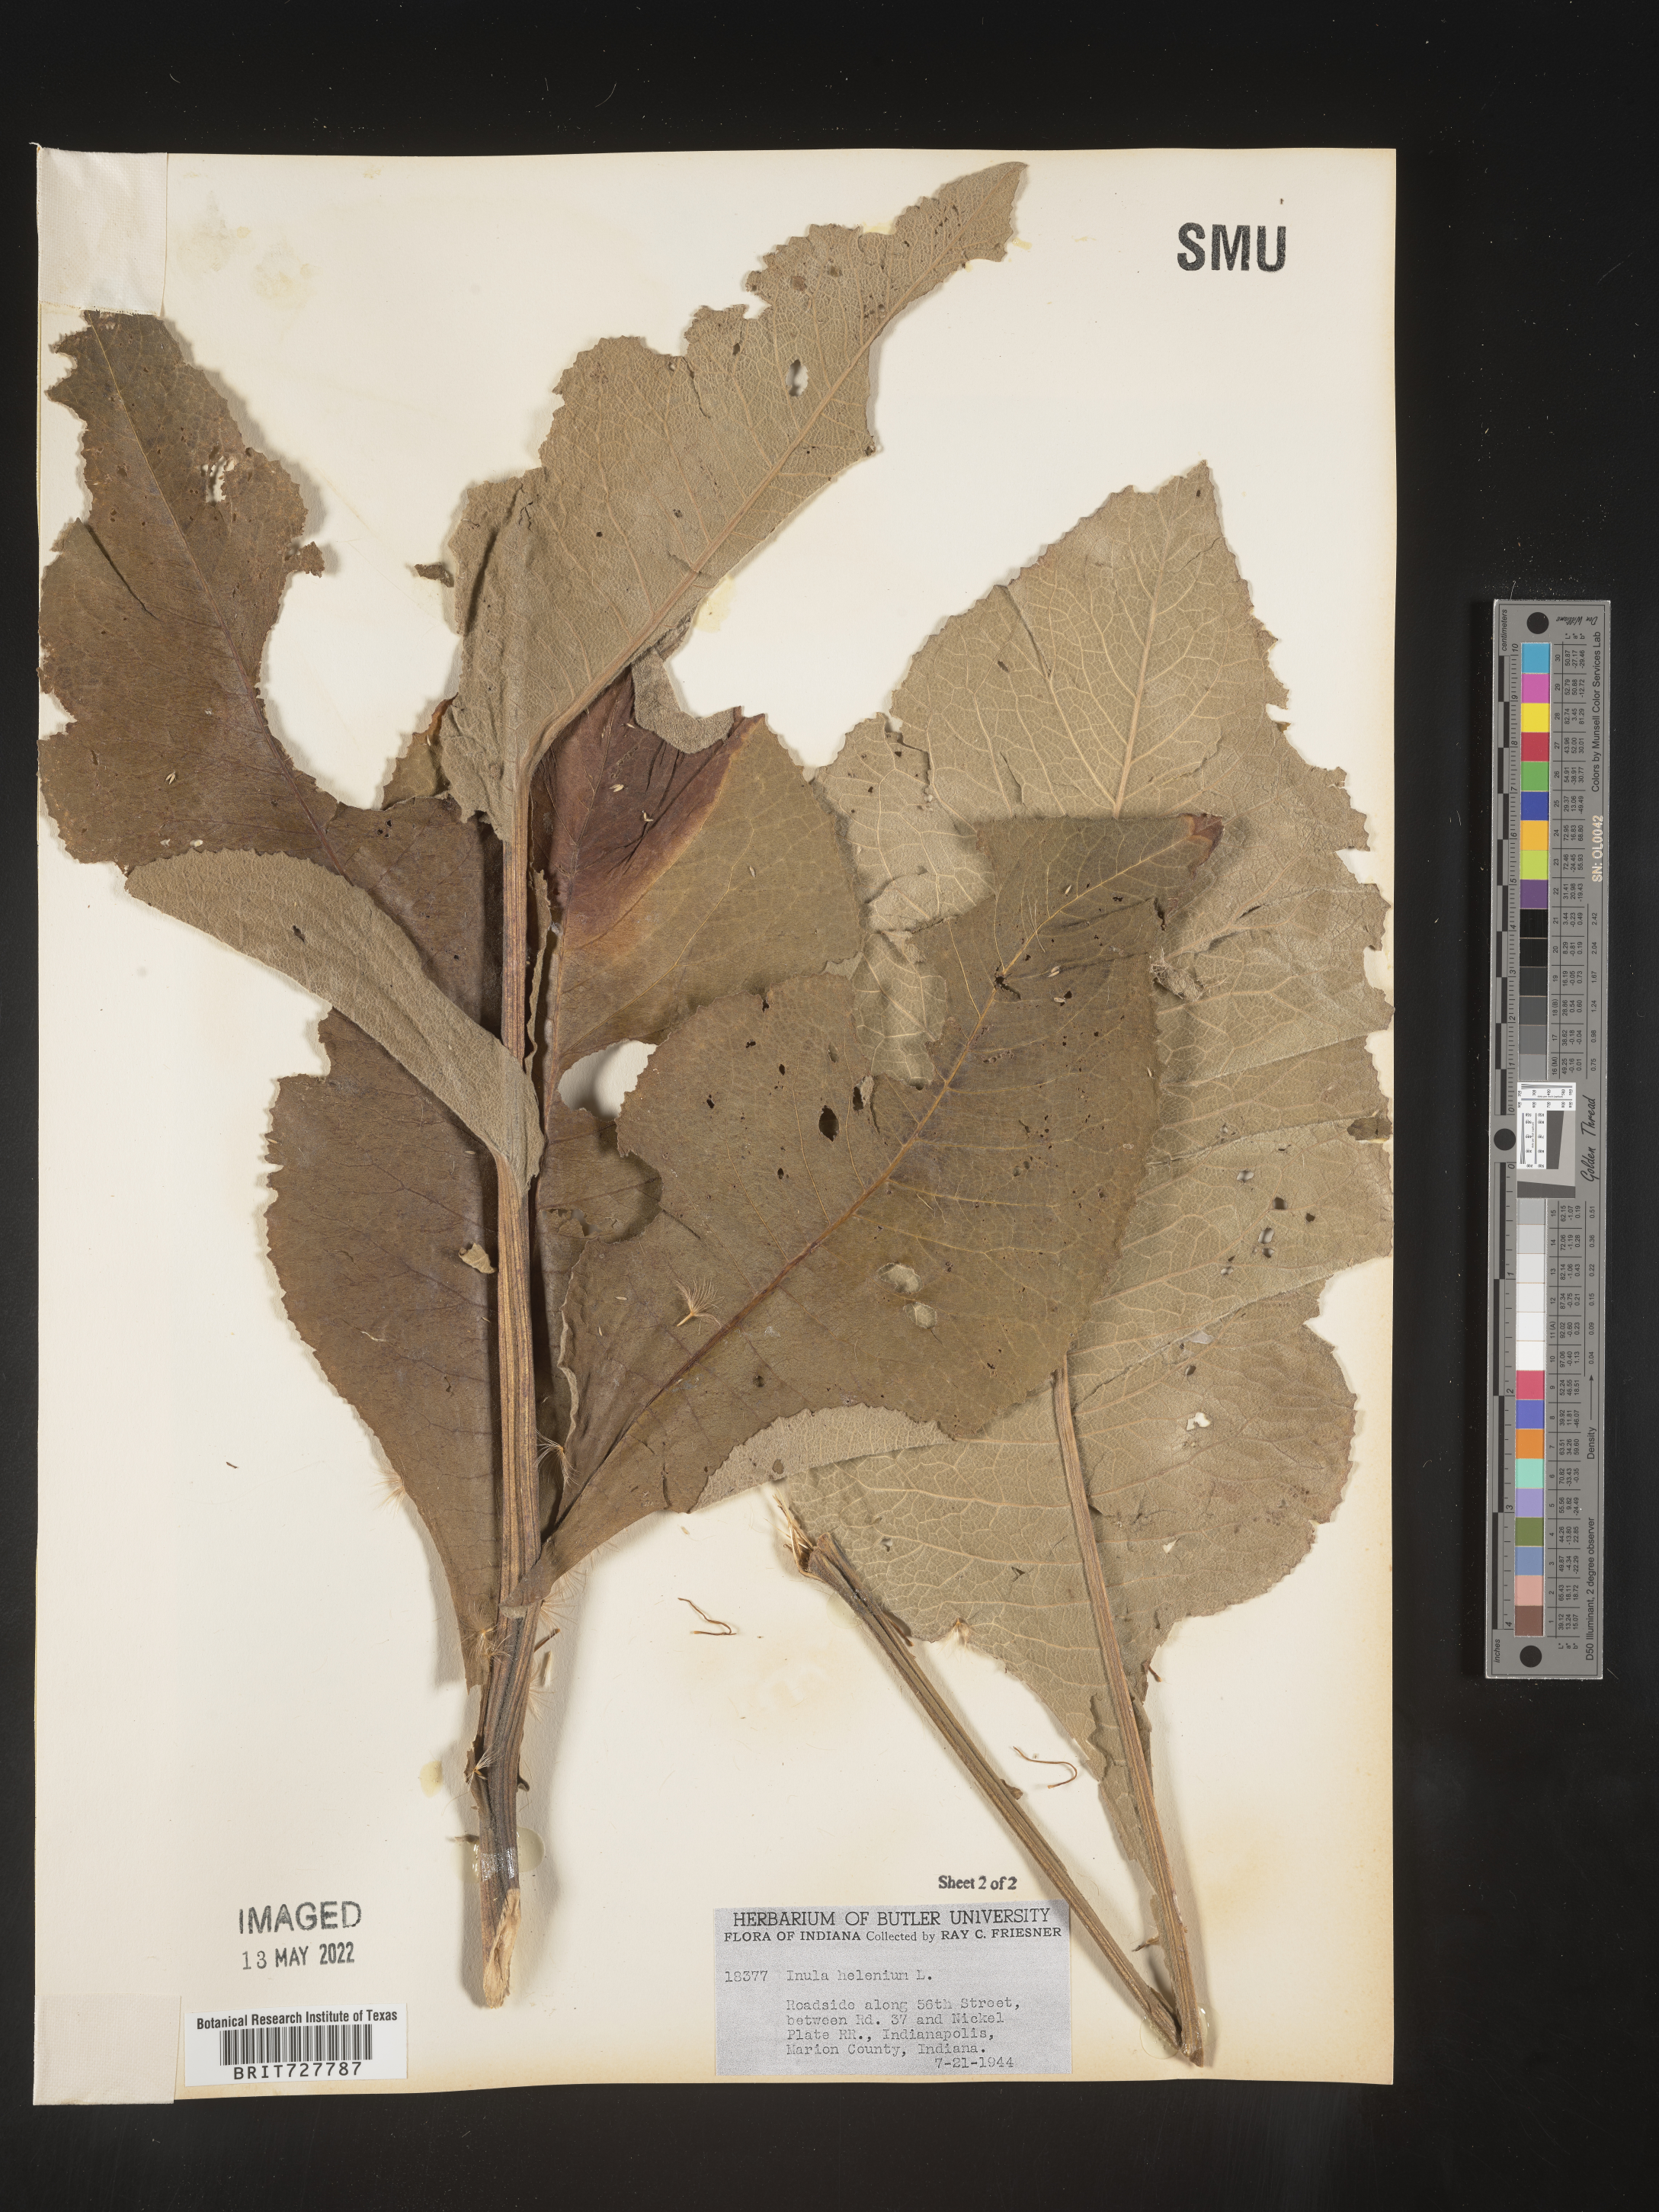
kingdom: Plantae
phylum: Tracheophyta
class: Magnoliopsida
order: Asterales
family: Asteraceae
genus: Inula
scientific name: Inula helenium
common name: Elecampane
